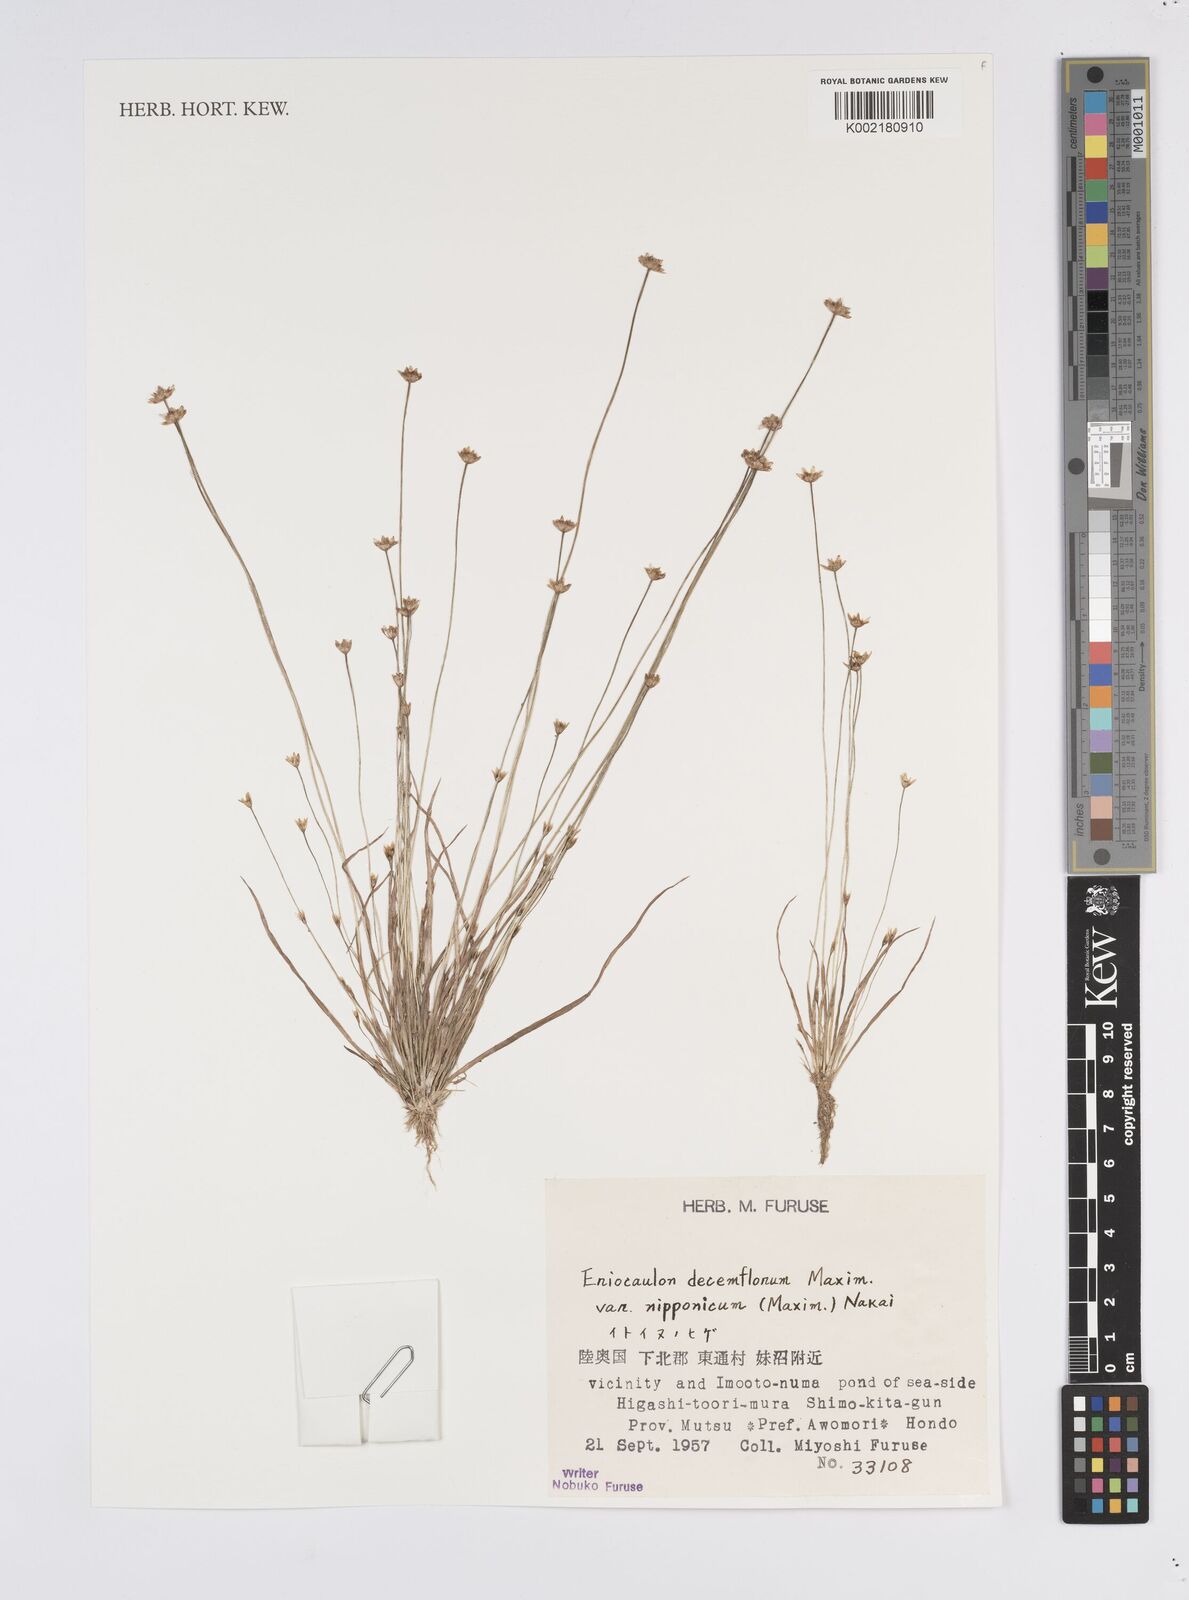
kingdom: Plantae
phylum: Tracheophyta
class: Liliopsida
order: Poales
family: Eriocaulaceae
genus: Eriocaulon
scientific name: Eriocaulon decemflorum
